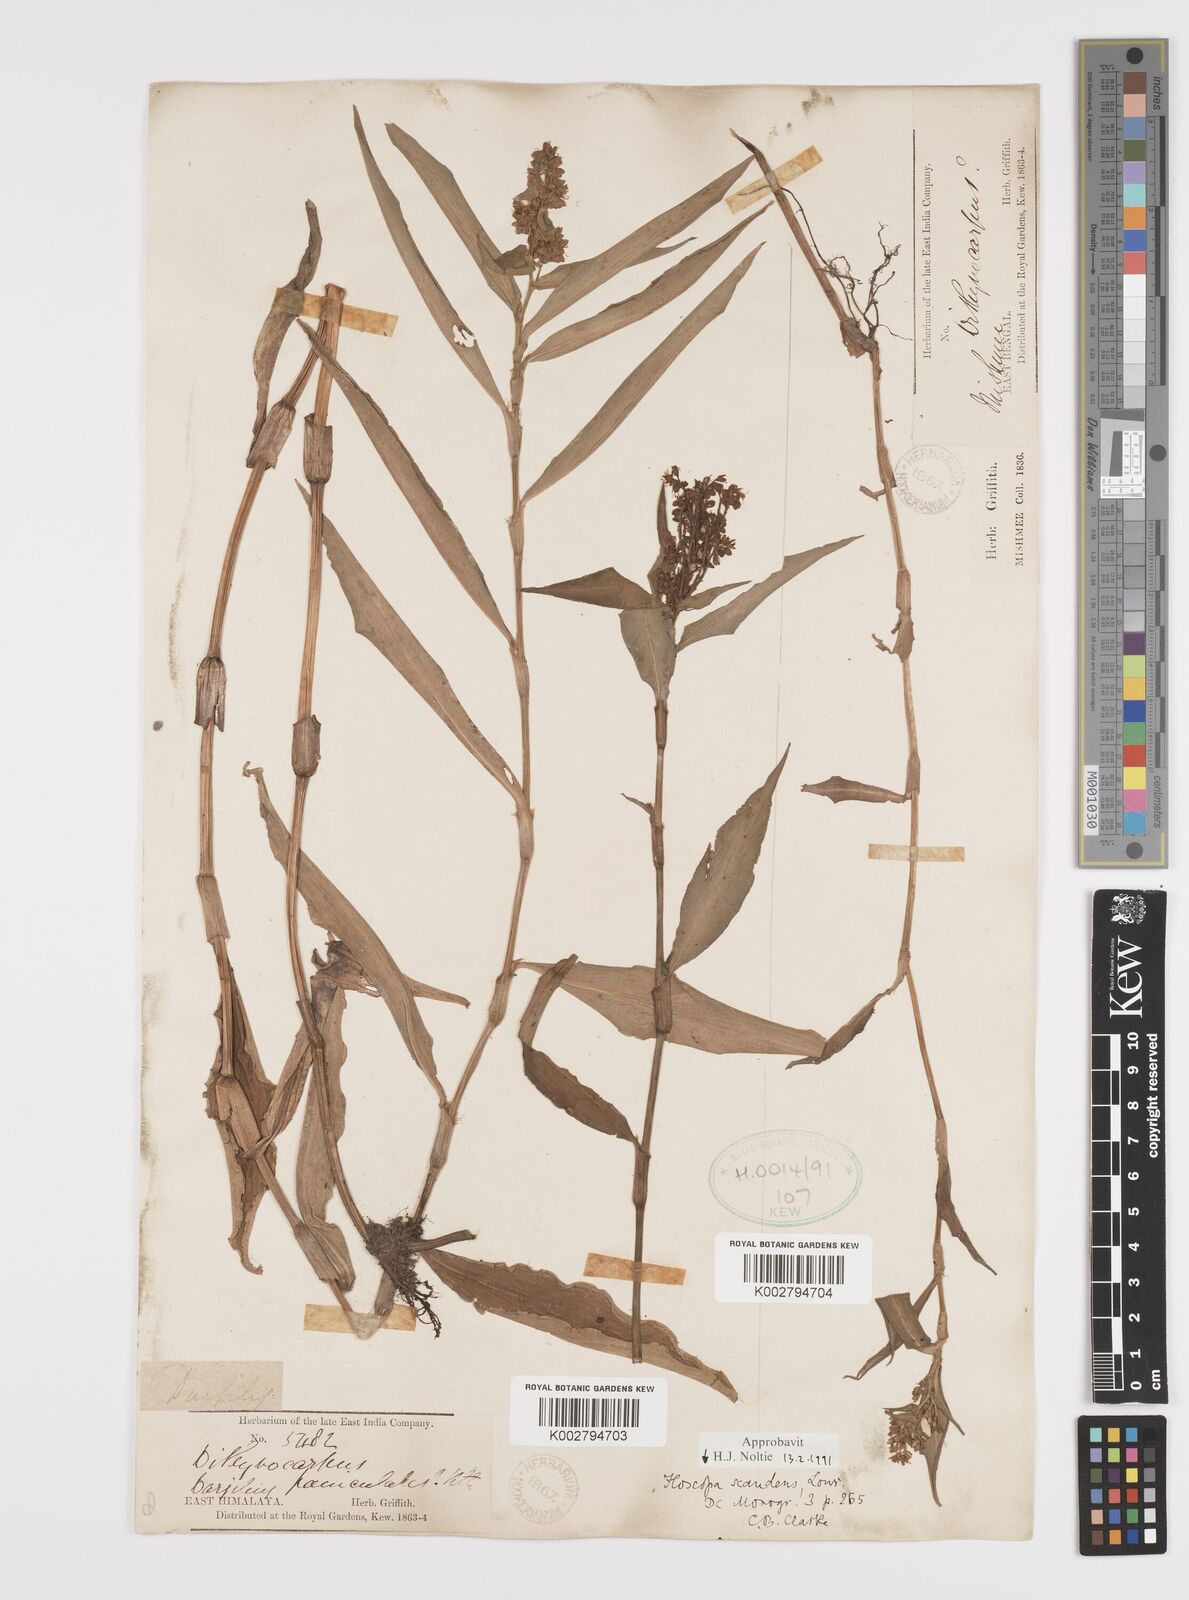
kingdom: Plantae
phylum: Tracheophyta
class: Liliopsida
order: Commelinales
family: Commelinaceae
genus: Floscopa
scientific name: Floscopa scandens
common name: Climbing flower cup
